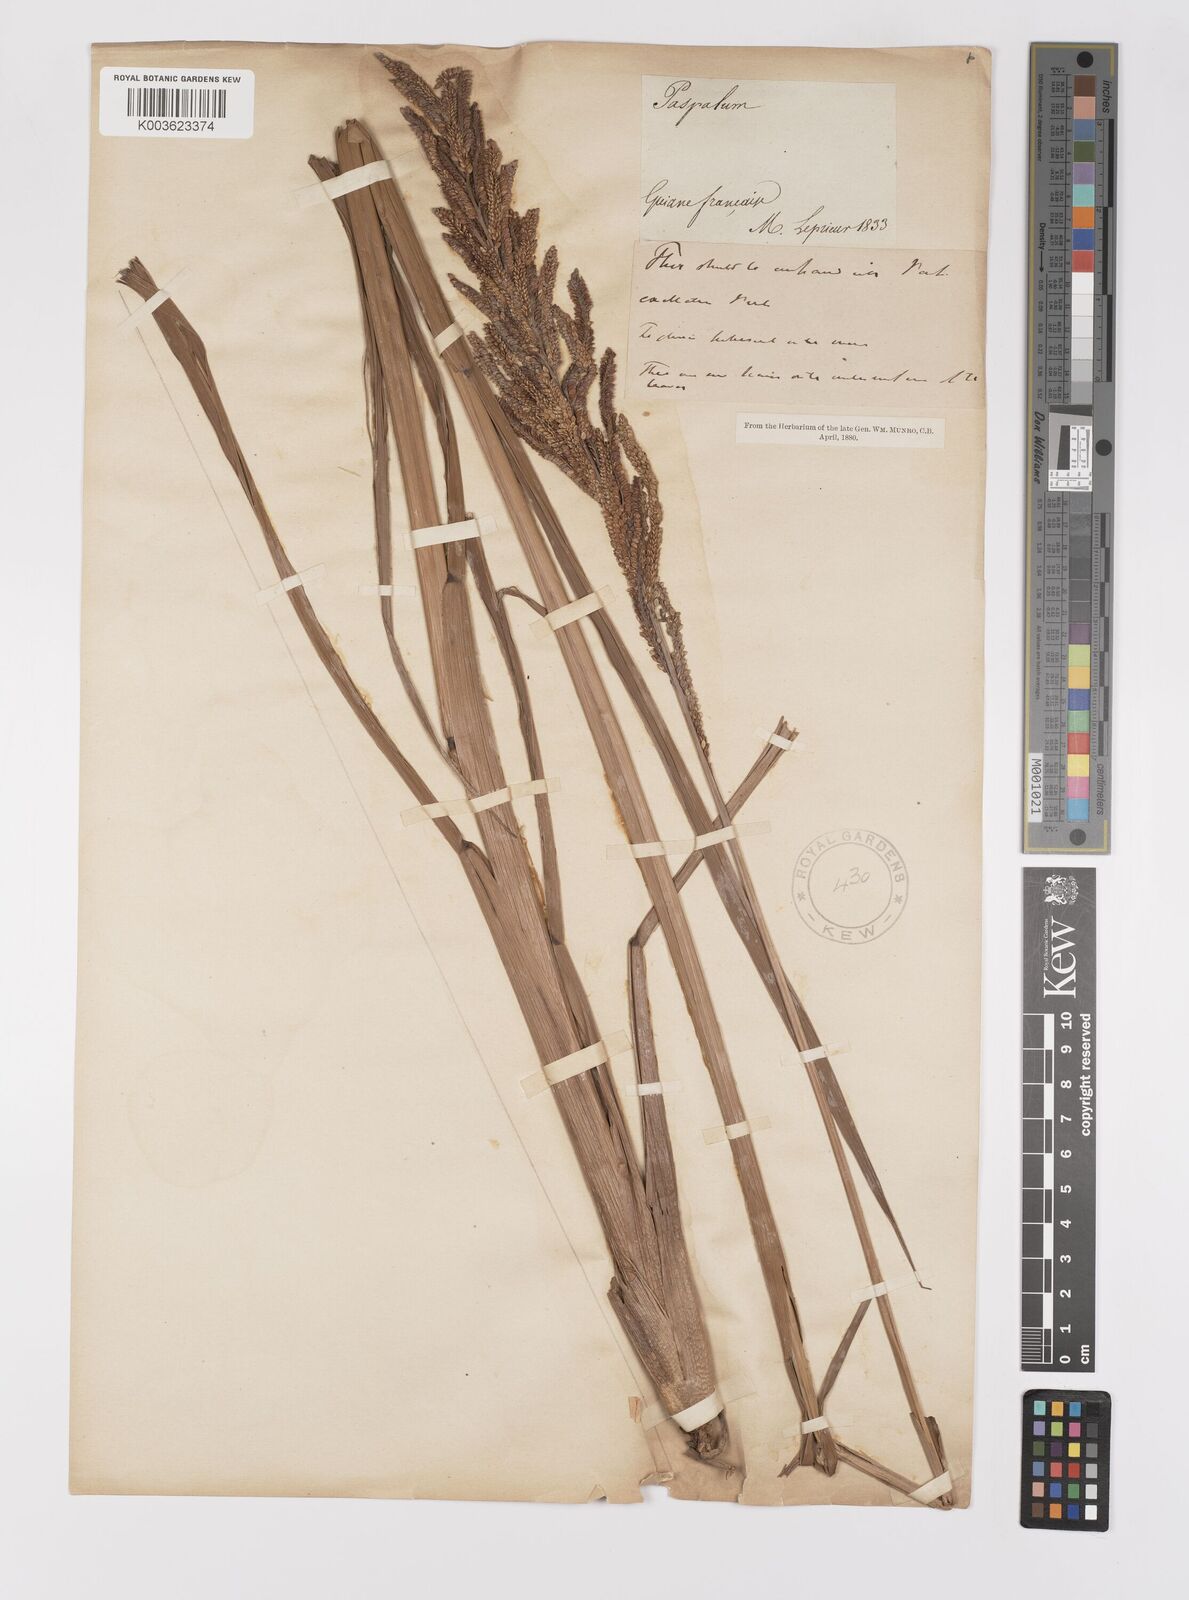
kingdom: Plantae
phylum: Tracheophyta
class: Liliopsida
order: Poales
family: Poaceae
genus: Paspalum
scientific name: Paspalum quadrifarium
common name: Tussock paspalum
